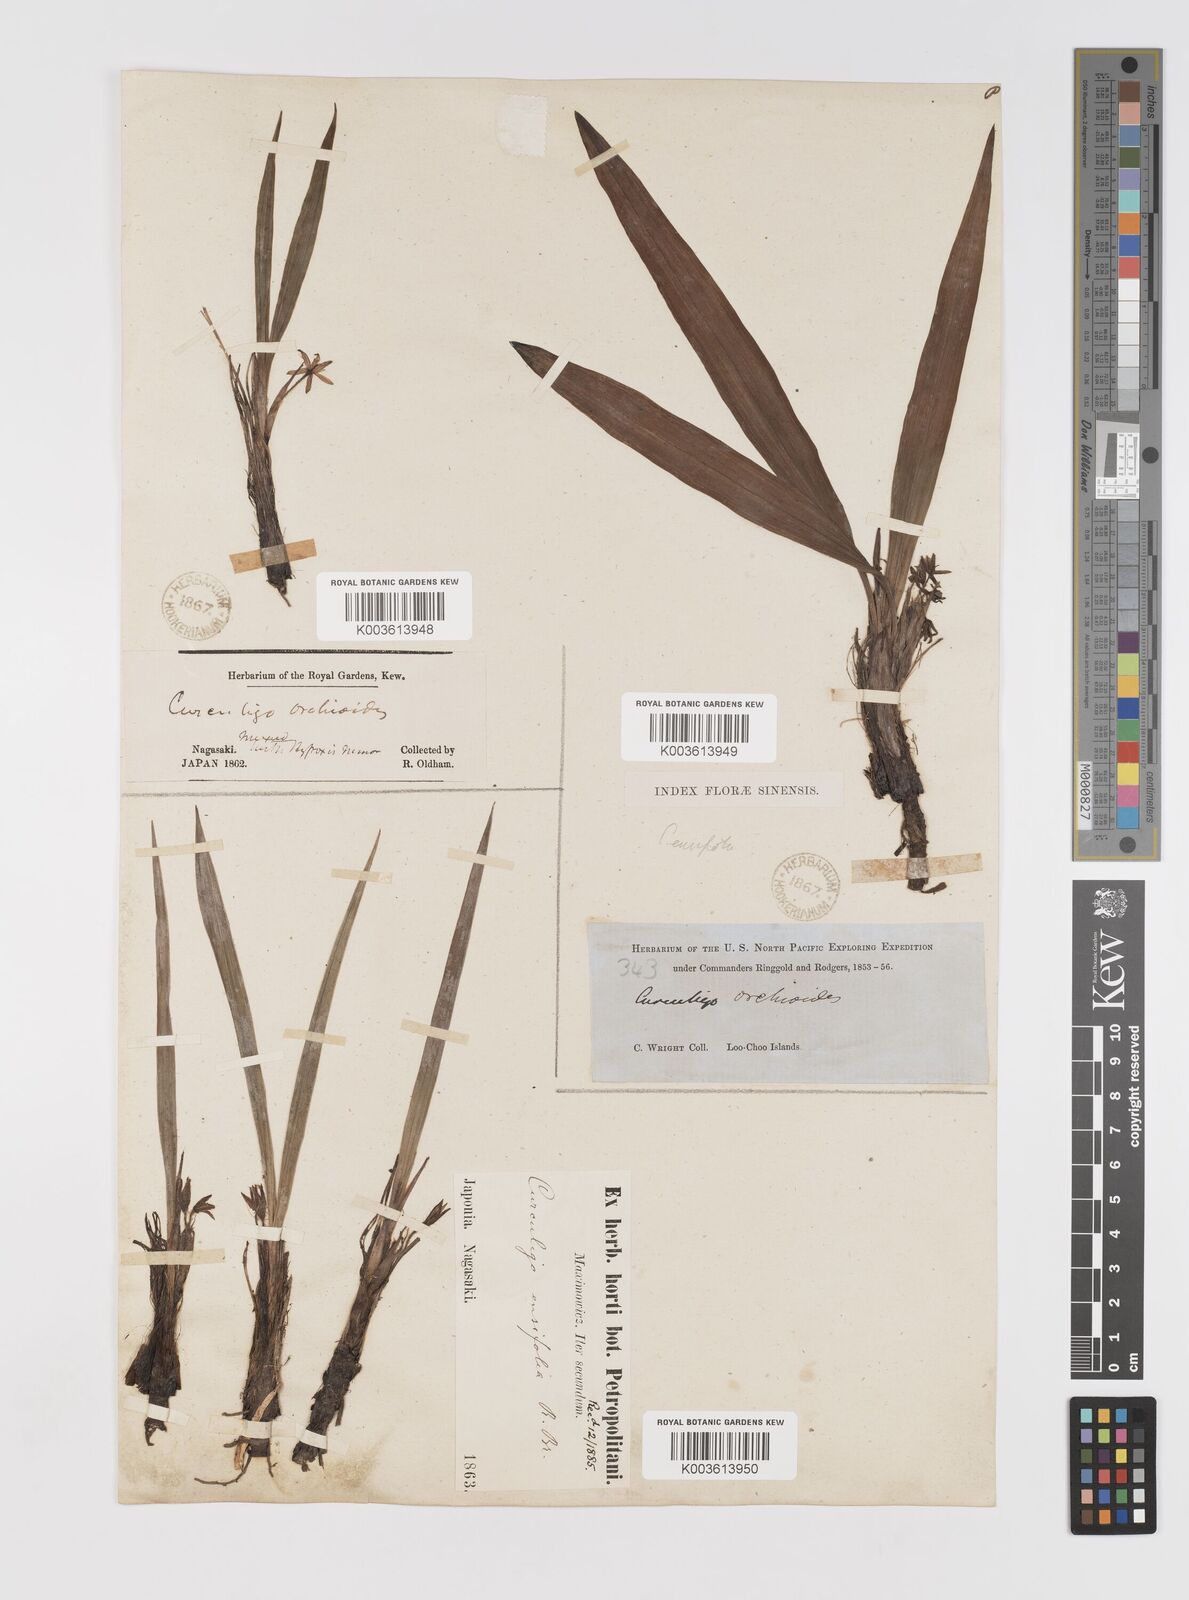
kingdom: Plantae
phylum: Tracheophyta
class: Liliopsida
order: Asparagales
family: Hypoxidaceae
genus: Curculigo
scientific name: Curculigo orchioides
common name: Golden eye-grass
